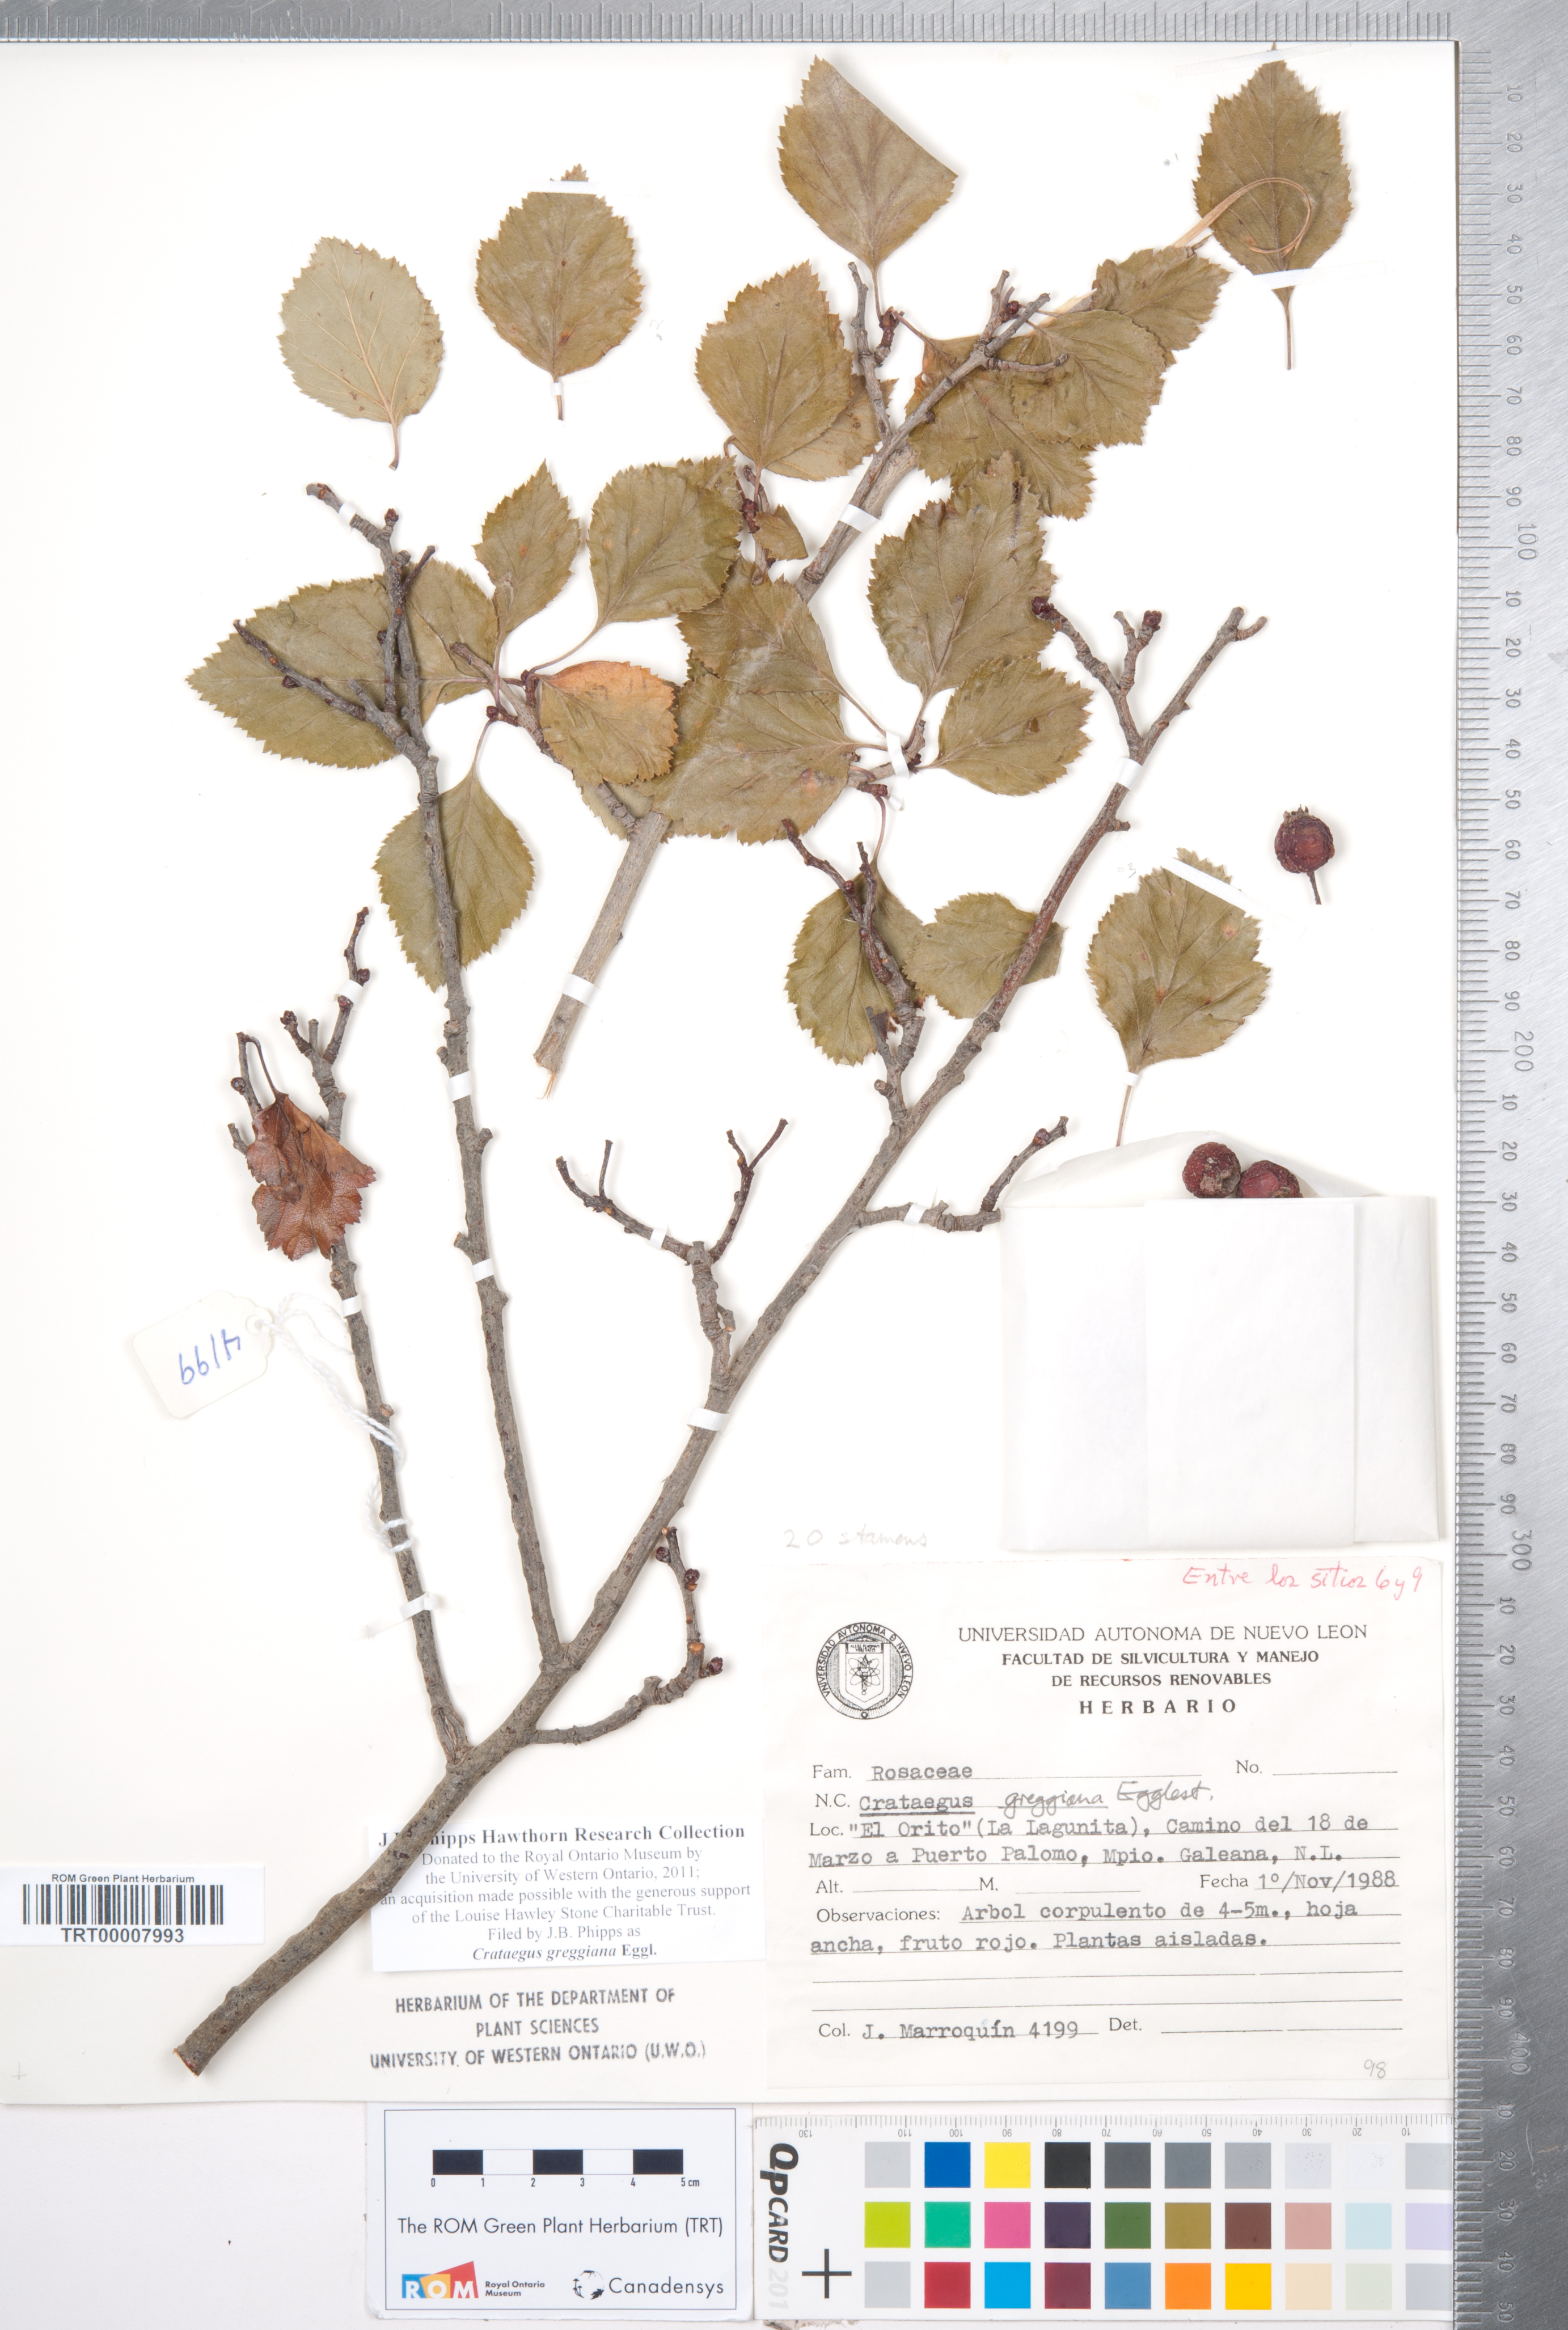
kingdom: Plantae
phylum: Tracheophyta
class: Magnoliopsida
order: Rosales
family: Rosaceae
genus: Crataegus
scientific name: Crataegus greggiana
